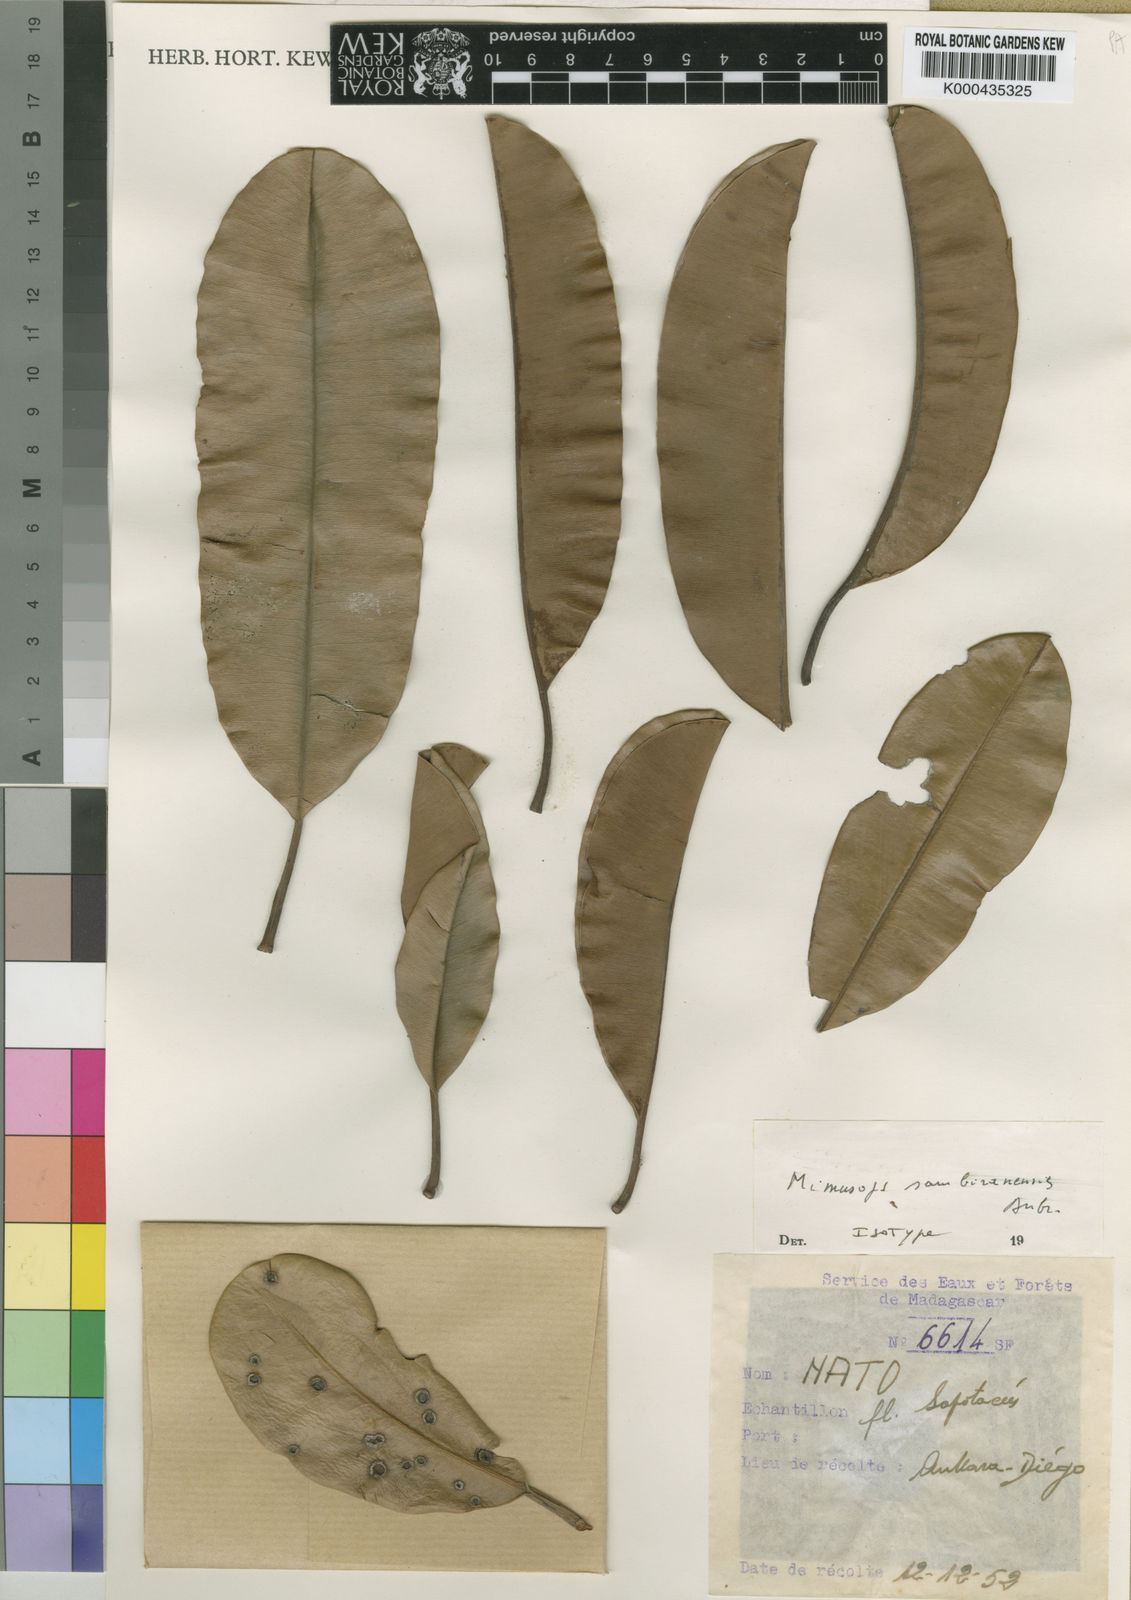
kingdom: Plantae
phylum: Tracheophyta
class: Magnoliopsida
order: Ericales
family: Sapotaceae
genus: Mimusops
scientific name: Mimusops
